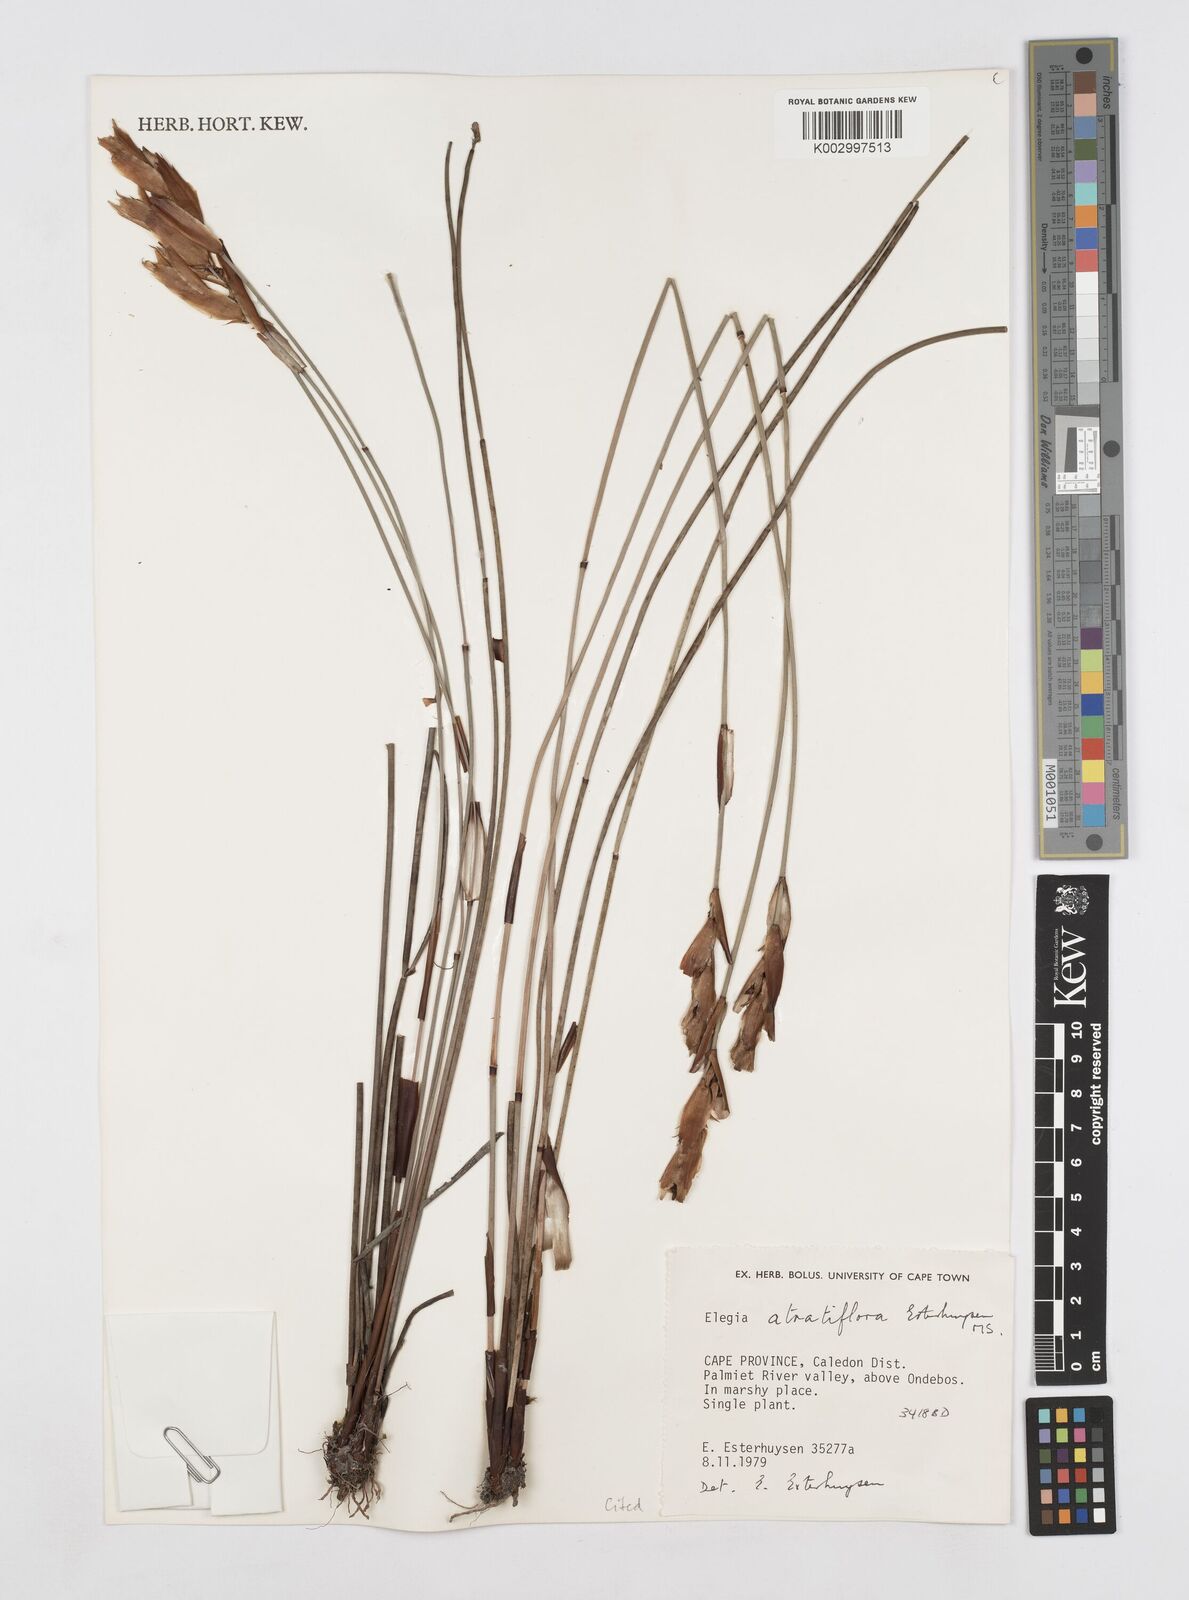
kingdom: Plantae
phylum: Tracheophyta
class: Liliopsida
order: Poales
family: Restionaceae
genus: Elegia
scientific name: Elegia atratiflora
